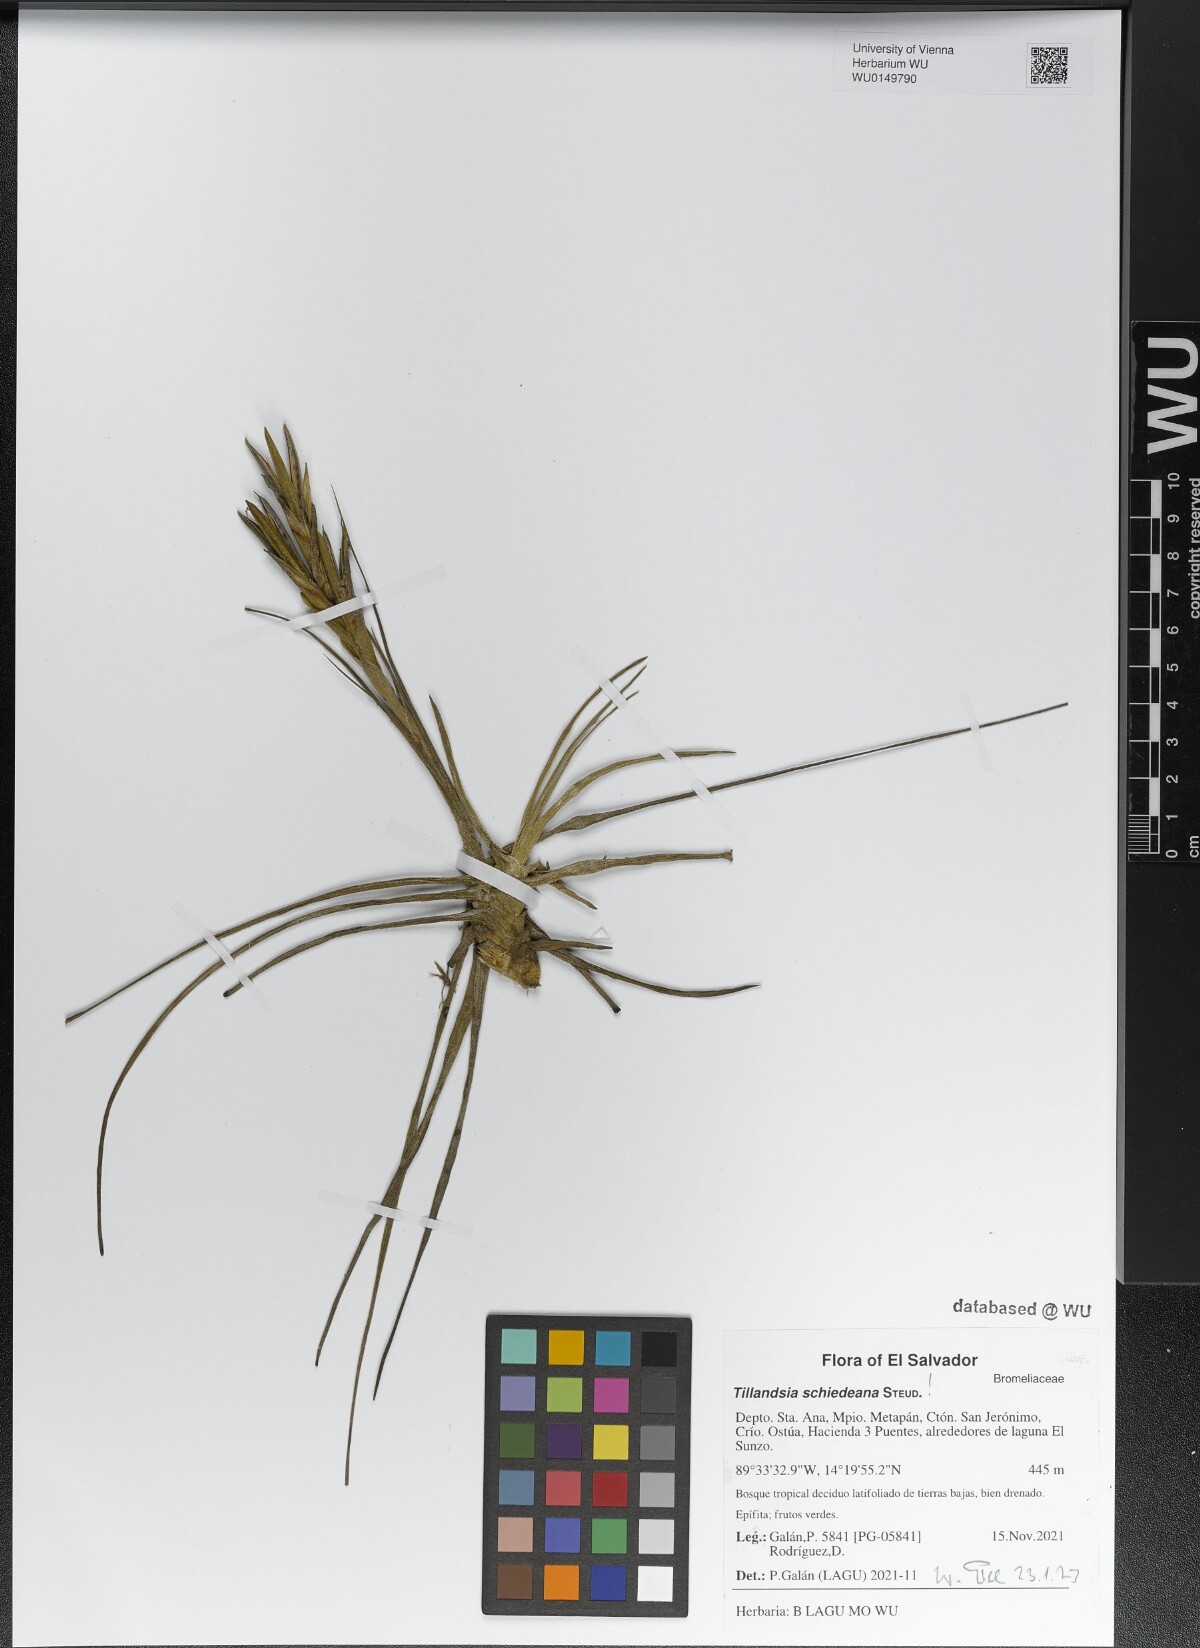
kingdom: Plantae
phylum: Tracheophyta
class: Liliopsida
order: Poales
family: Bromeliaceae
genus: Tillandsia
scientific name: Tillandsia schiedeana
